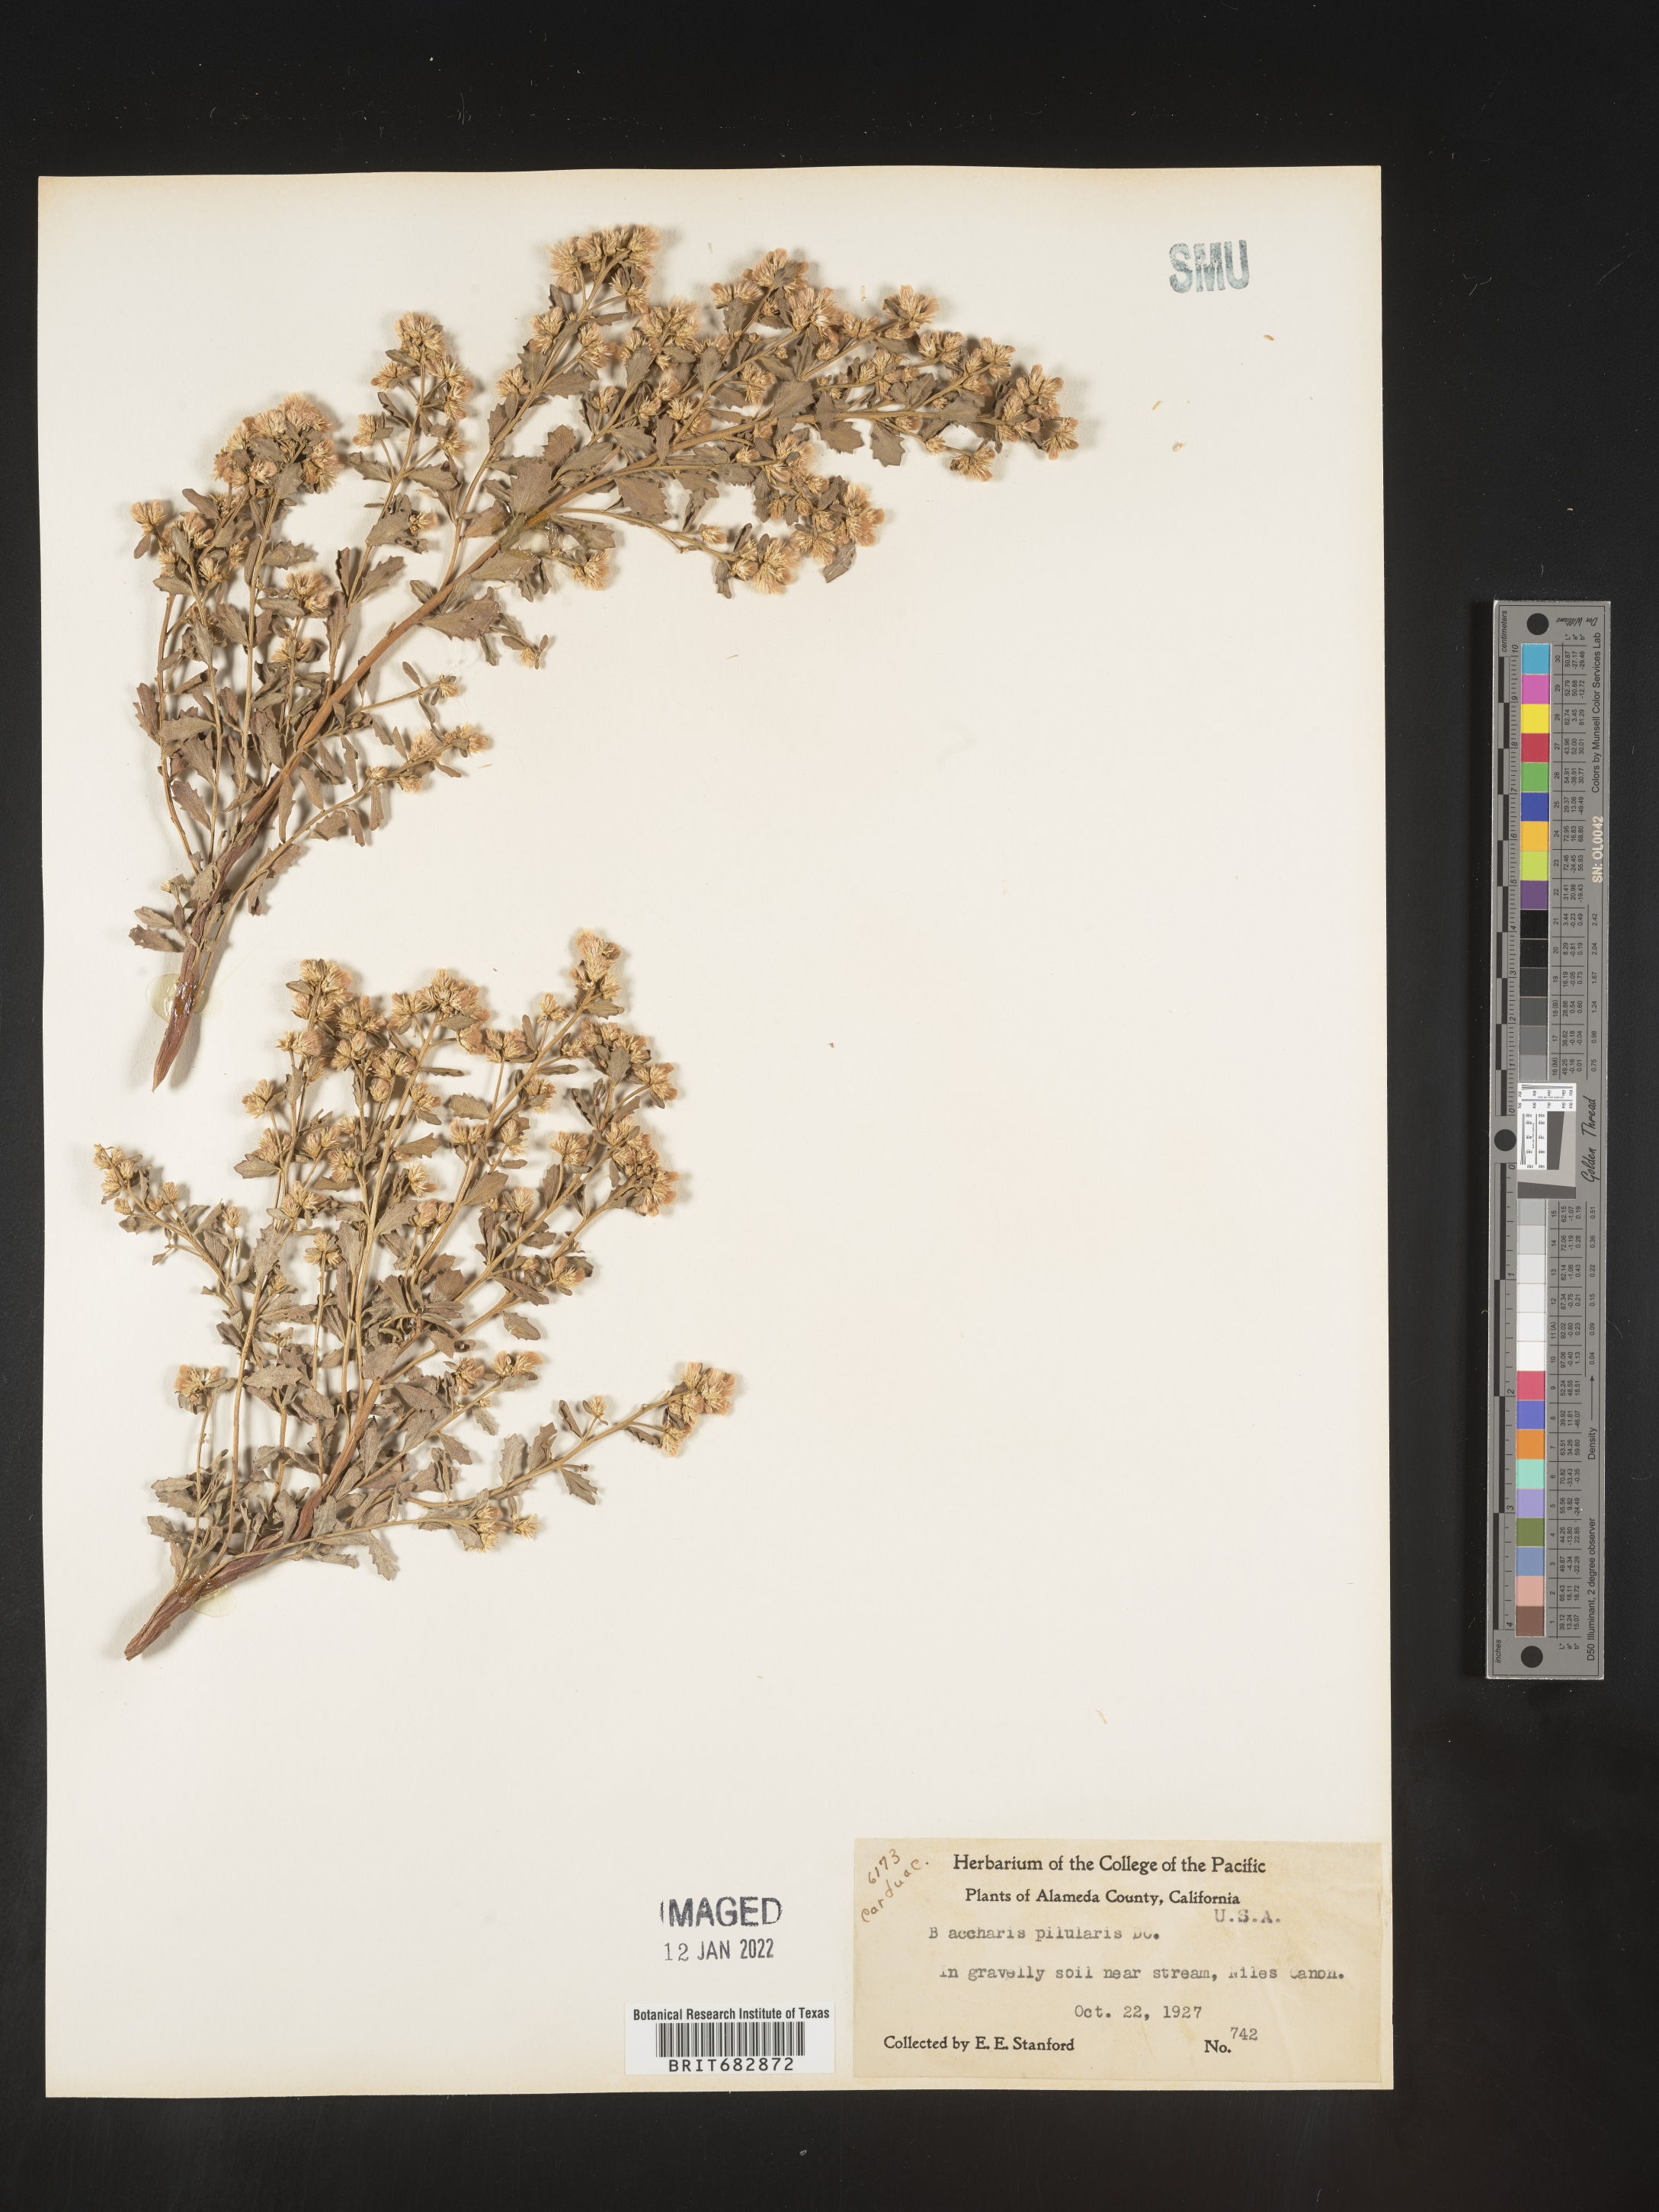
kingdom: Plantae
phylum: Tracheophyta
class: Magnoliopsida
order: Asterales
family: Asteraceae
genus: Baccharis
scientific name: Baccharis pilularis
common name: Coyotebrush
